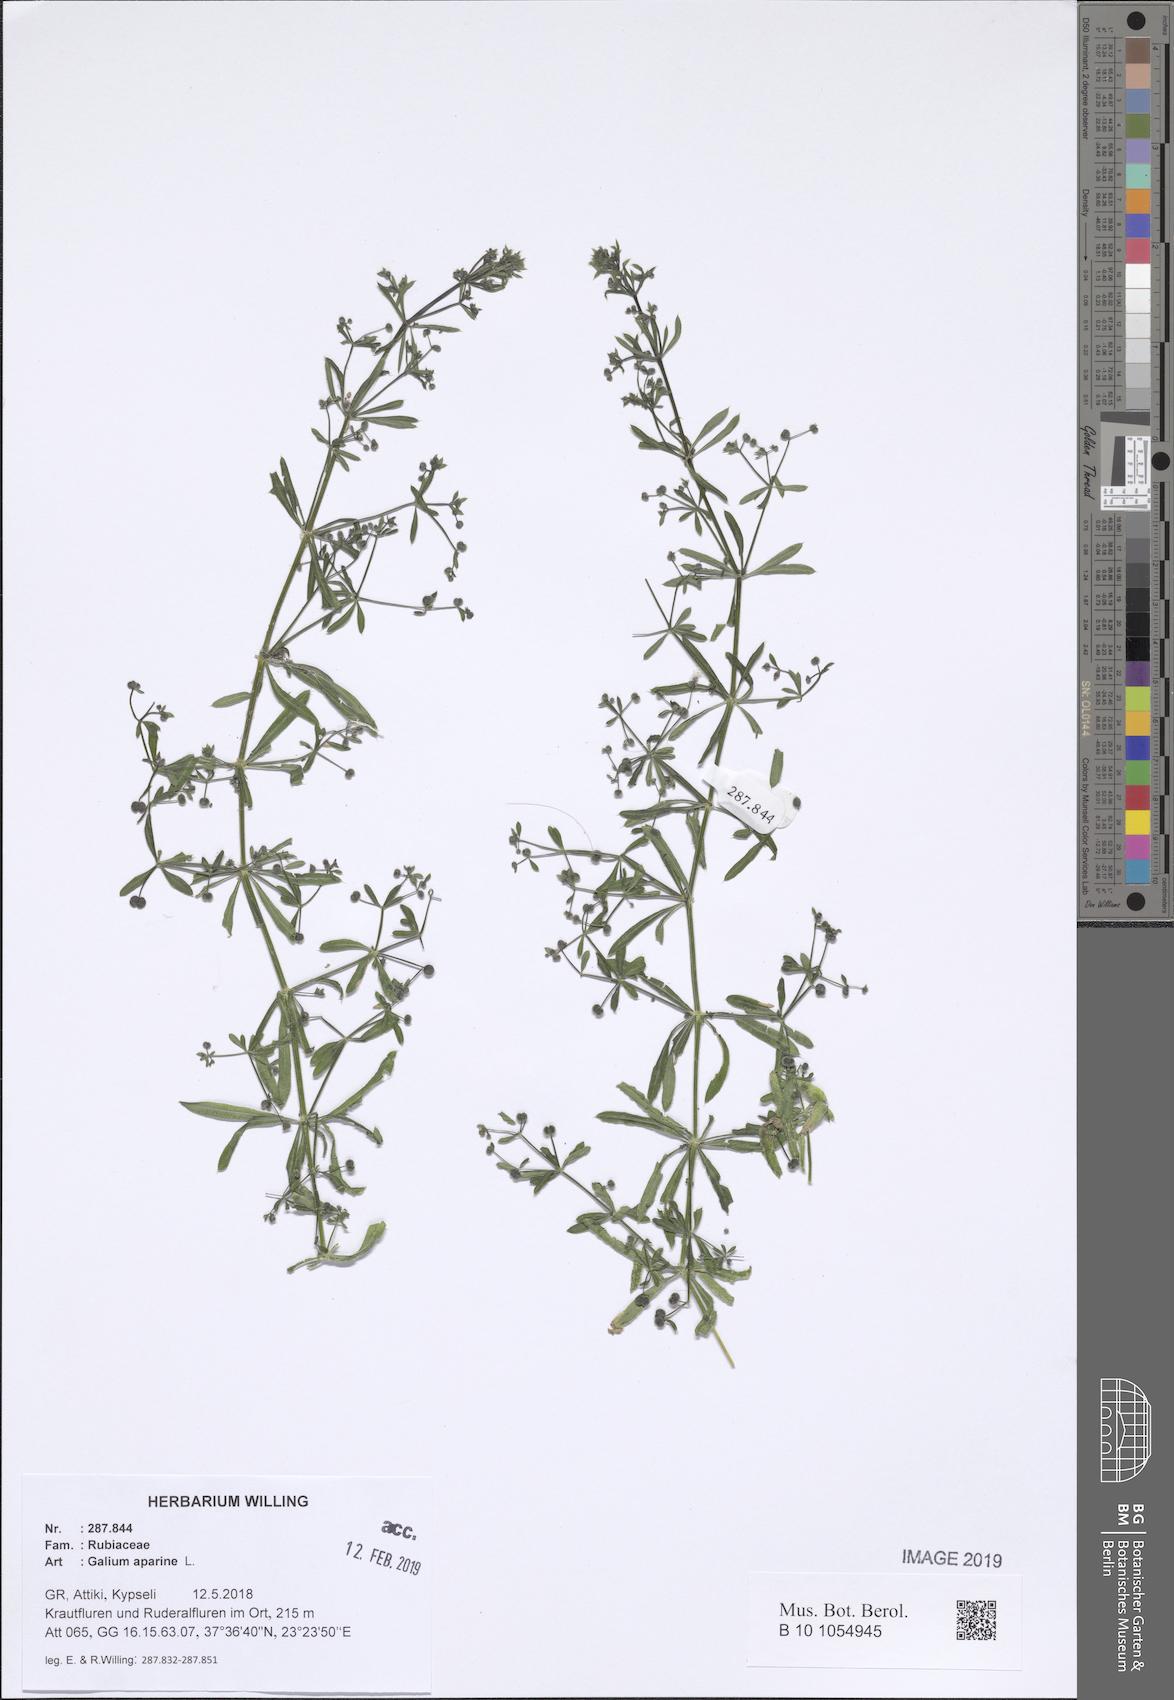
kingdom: Plantae
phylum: Tracheophyta
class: Magnoliopsida
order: Gentianales
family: Rubiaceae
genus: Galium
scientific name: Galium aparine
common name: Cleavers
